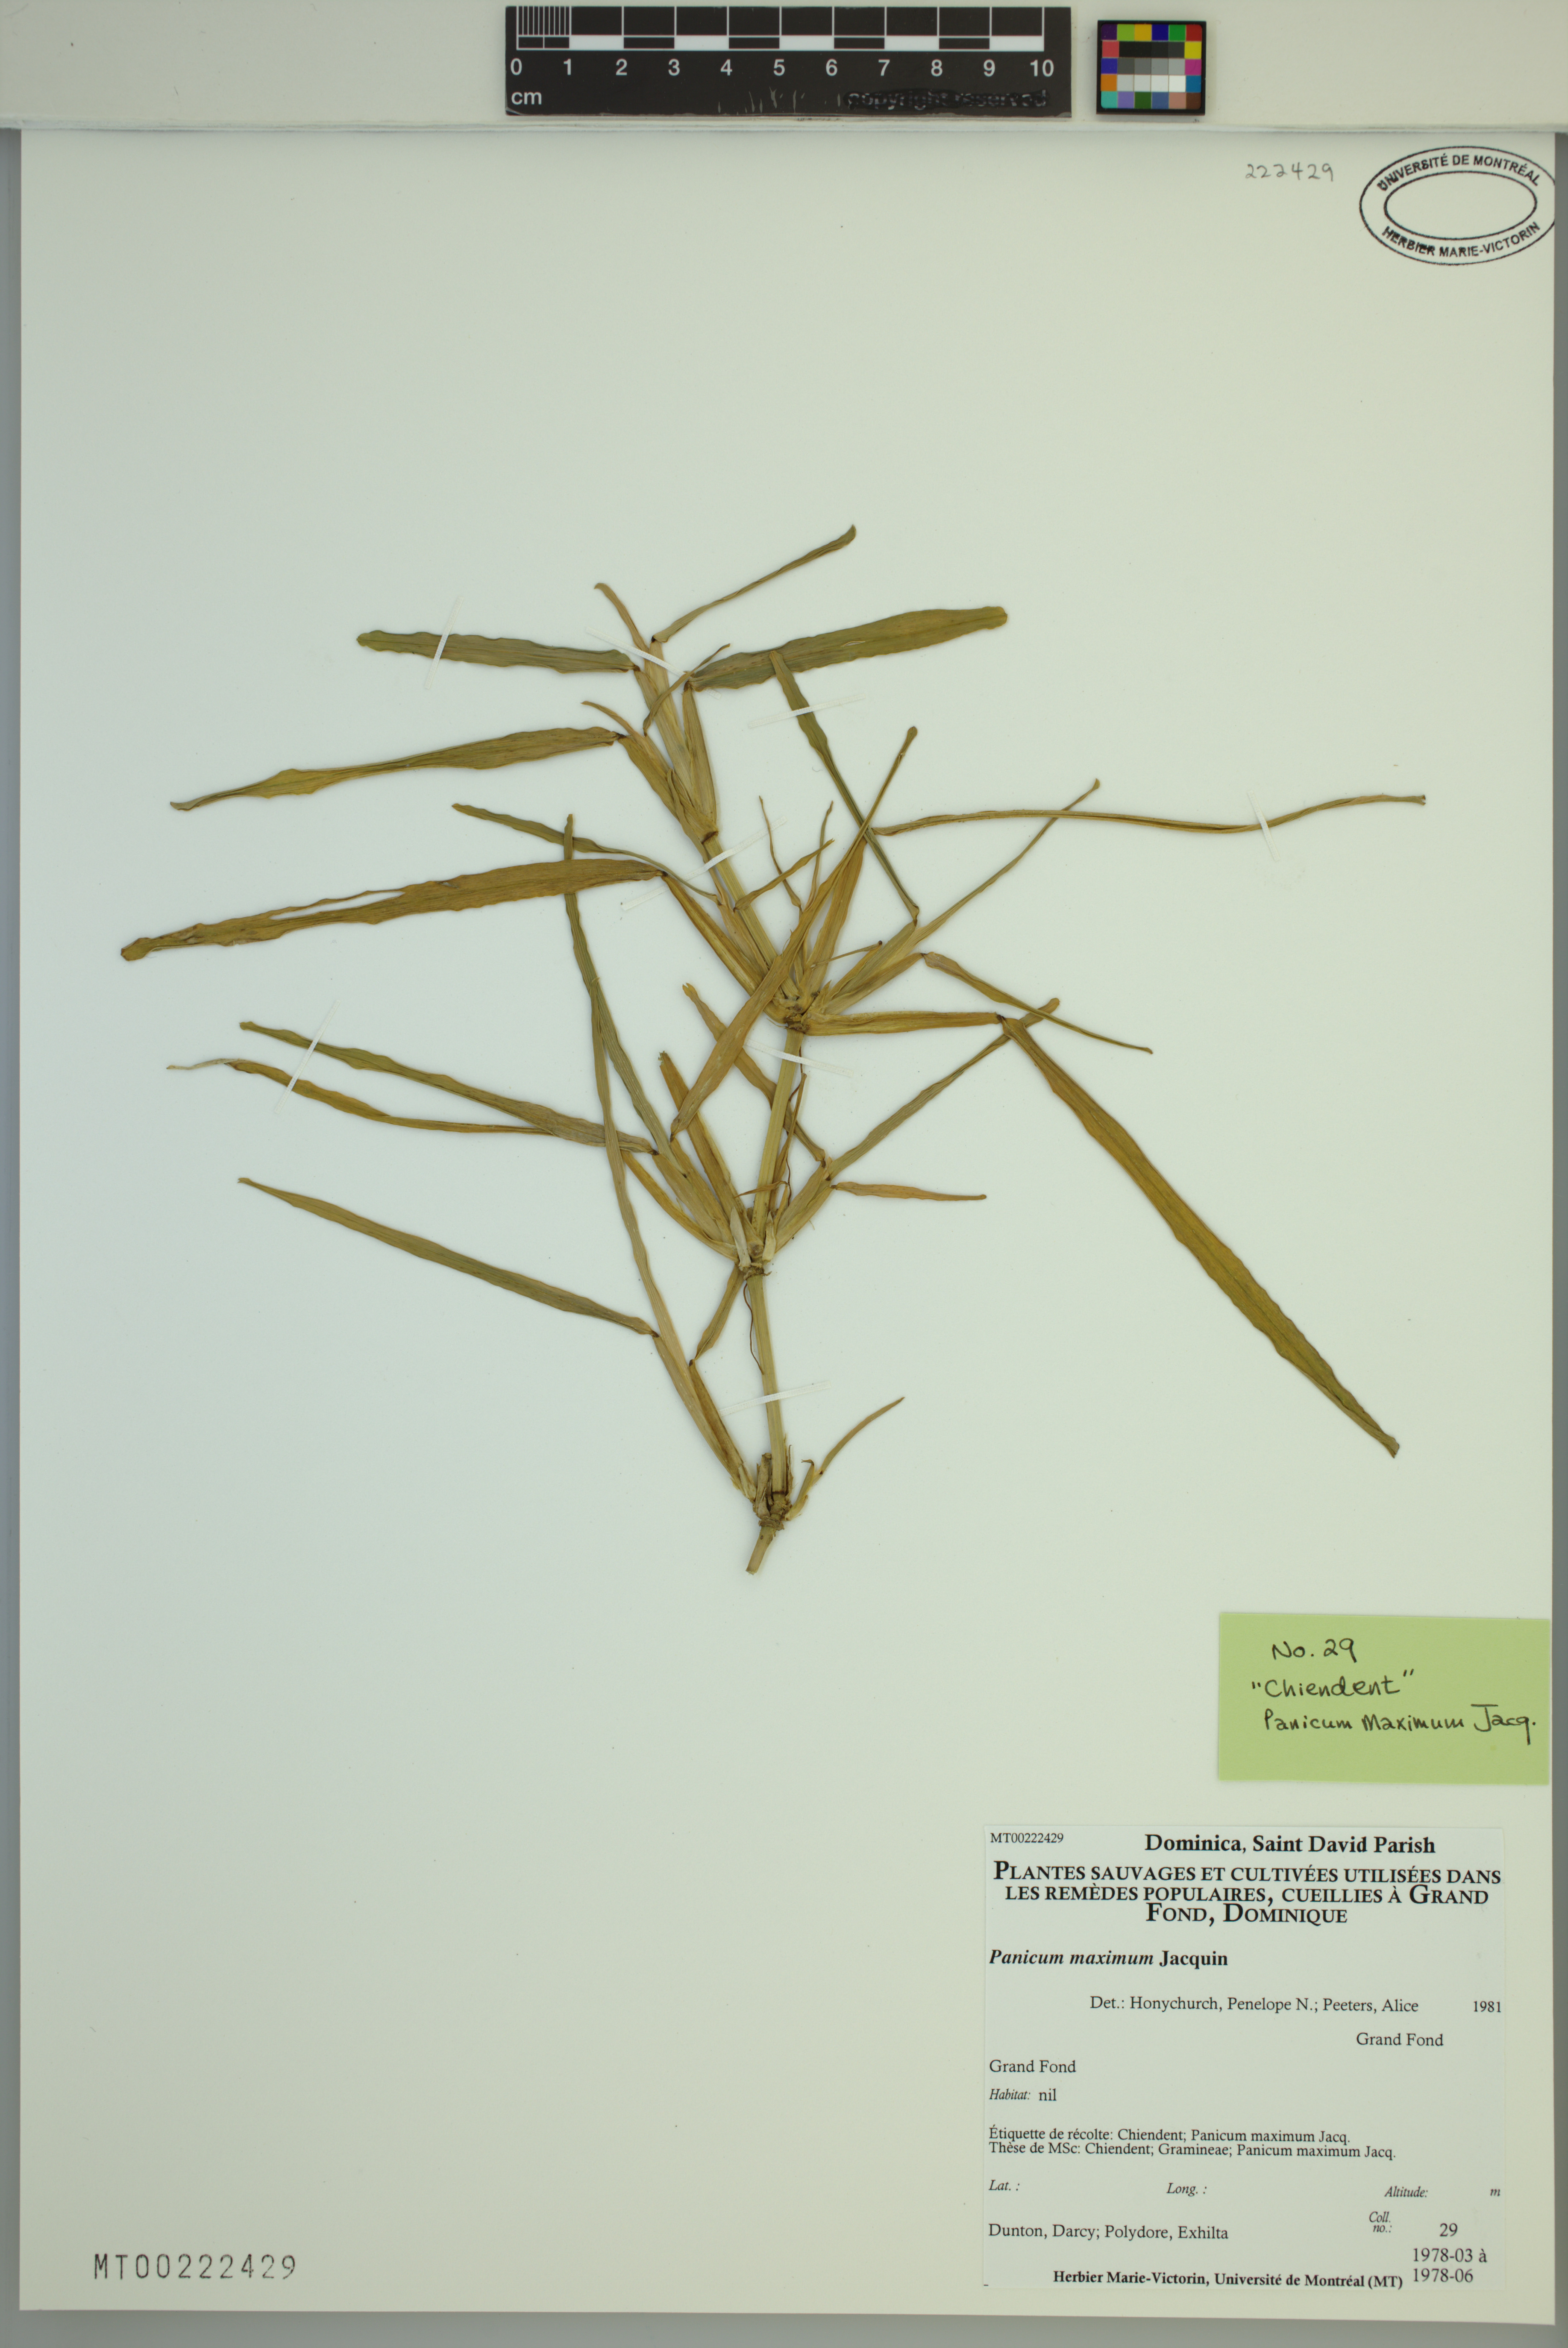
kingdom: Plantae
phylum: Tracheophyta
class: Liliopsida
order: Poales
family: Poaceae
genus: Megathyrsus
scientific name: Megathyrsus maximus
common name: Guineagrass
